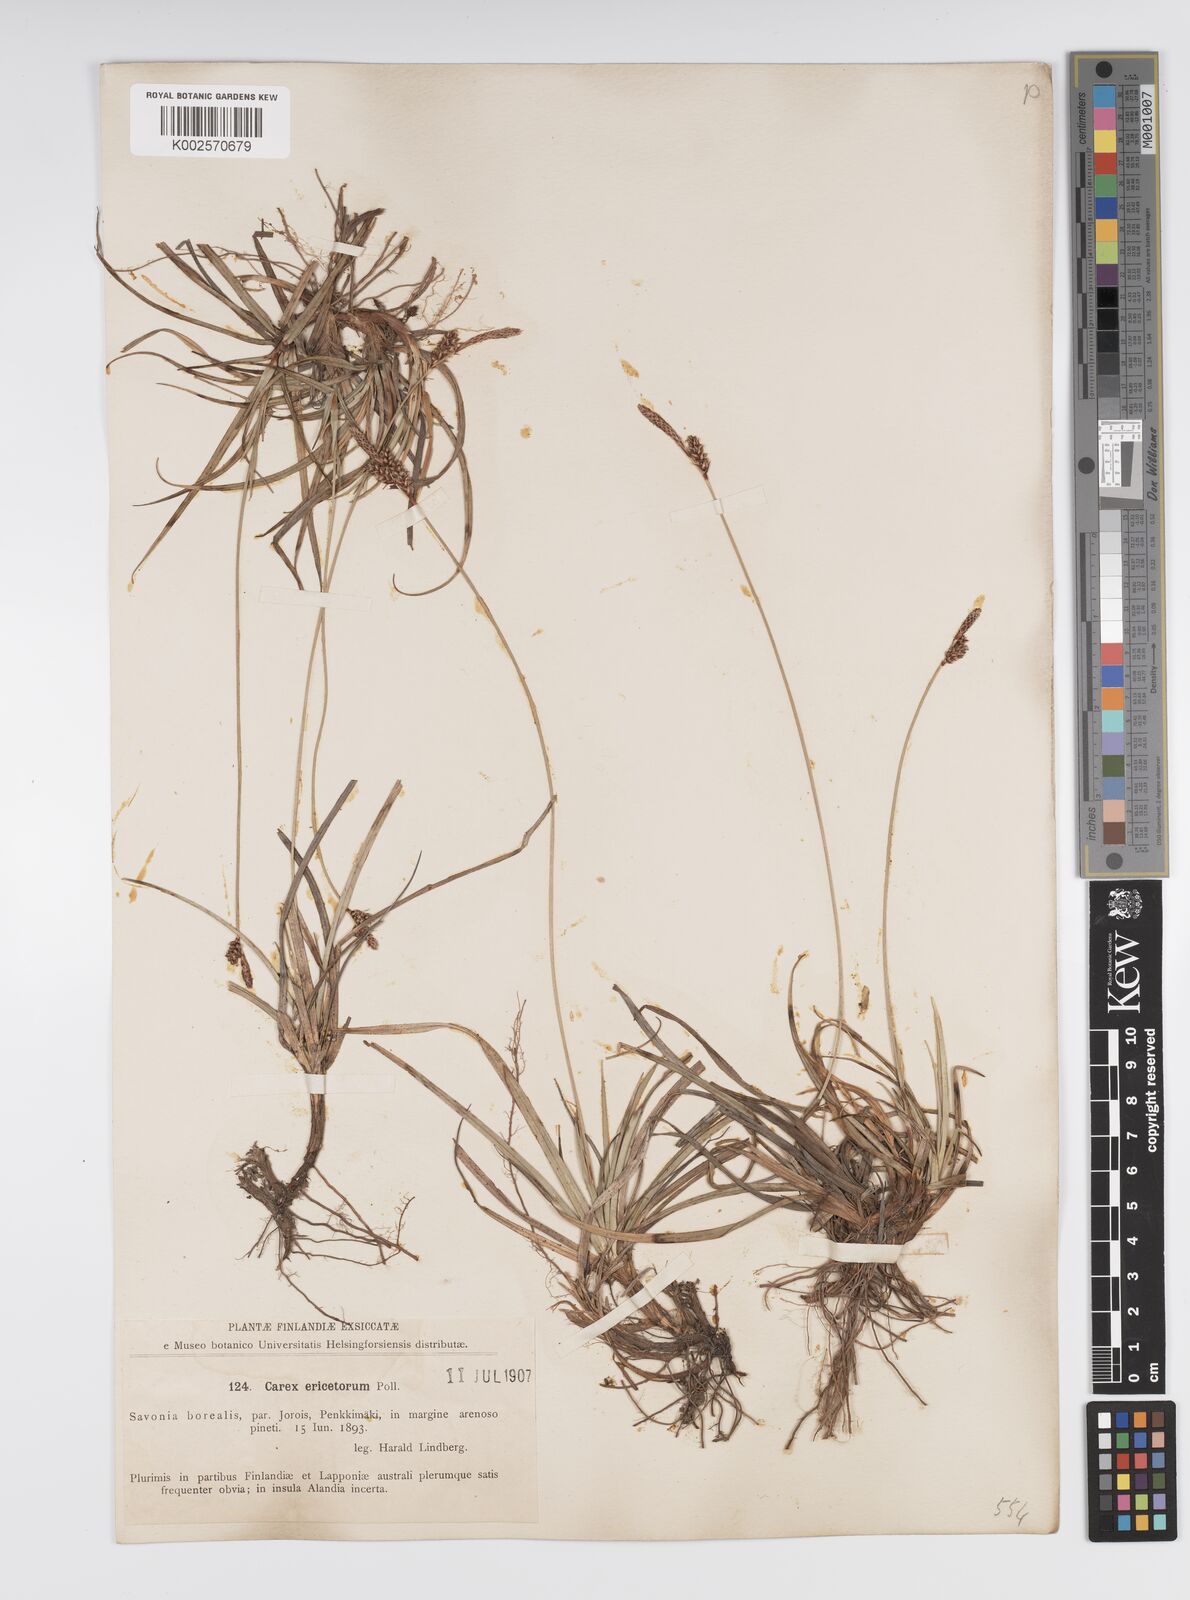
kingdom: Plantae
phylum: Tracheophyta
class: Liliopsida
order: Poales
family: Cyperaceae
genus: Carex
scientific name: Carex ericetorum
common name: Rare spring-sedge
